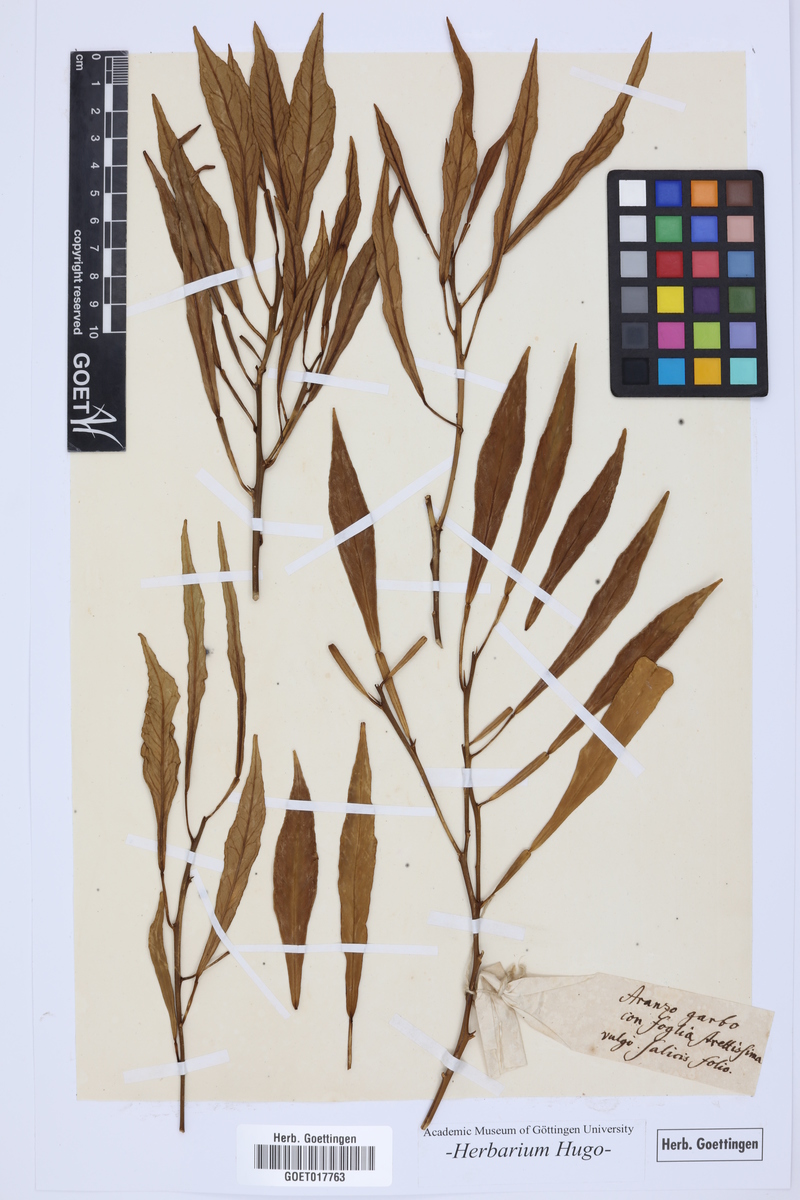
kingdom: Plantae
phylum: Tracheophyta
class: Magnoliopsida
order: Sapindales
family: Rutaceae
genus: Citrus
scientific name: Citrus
